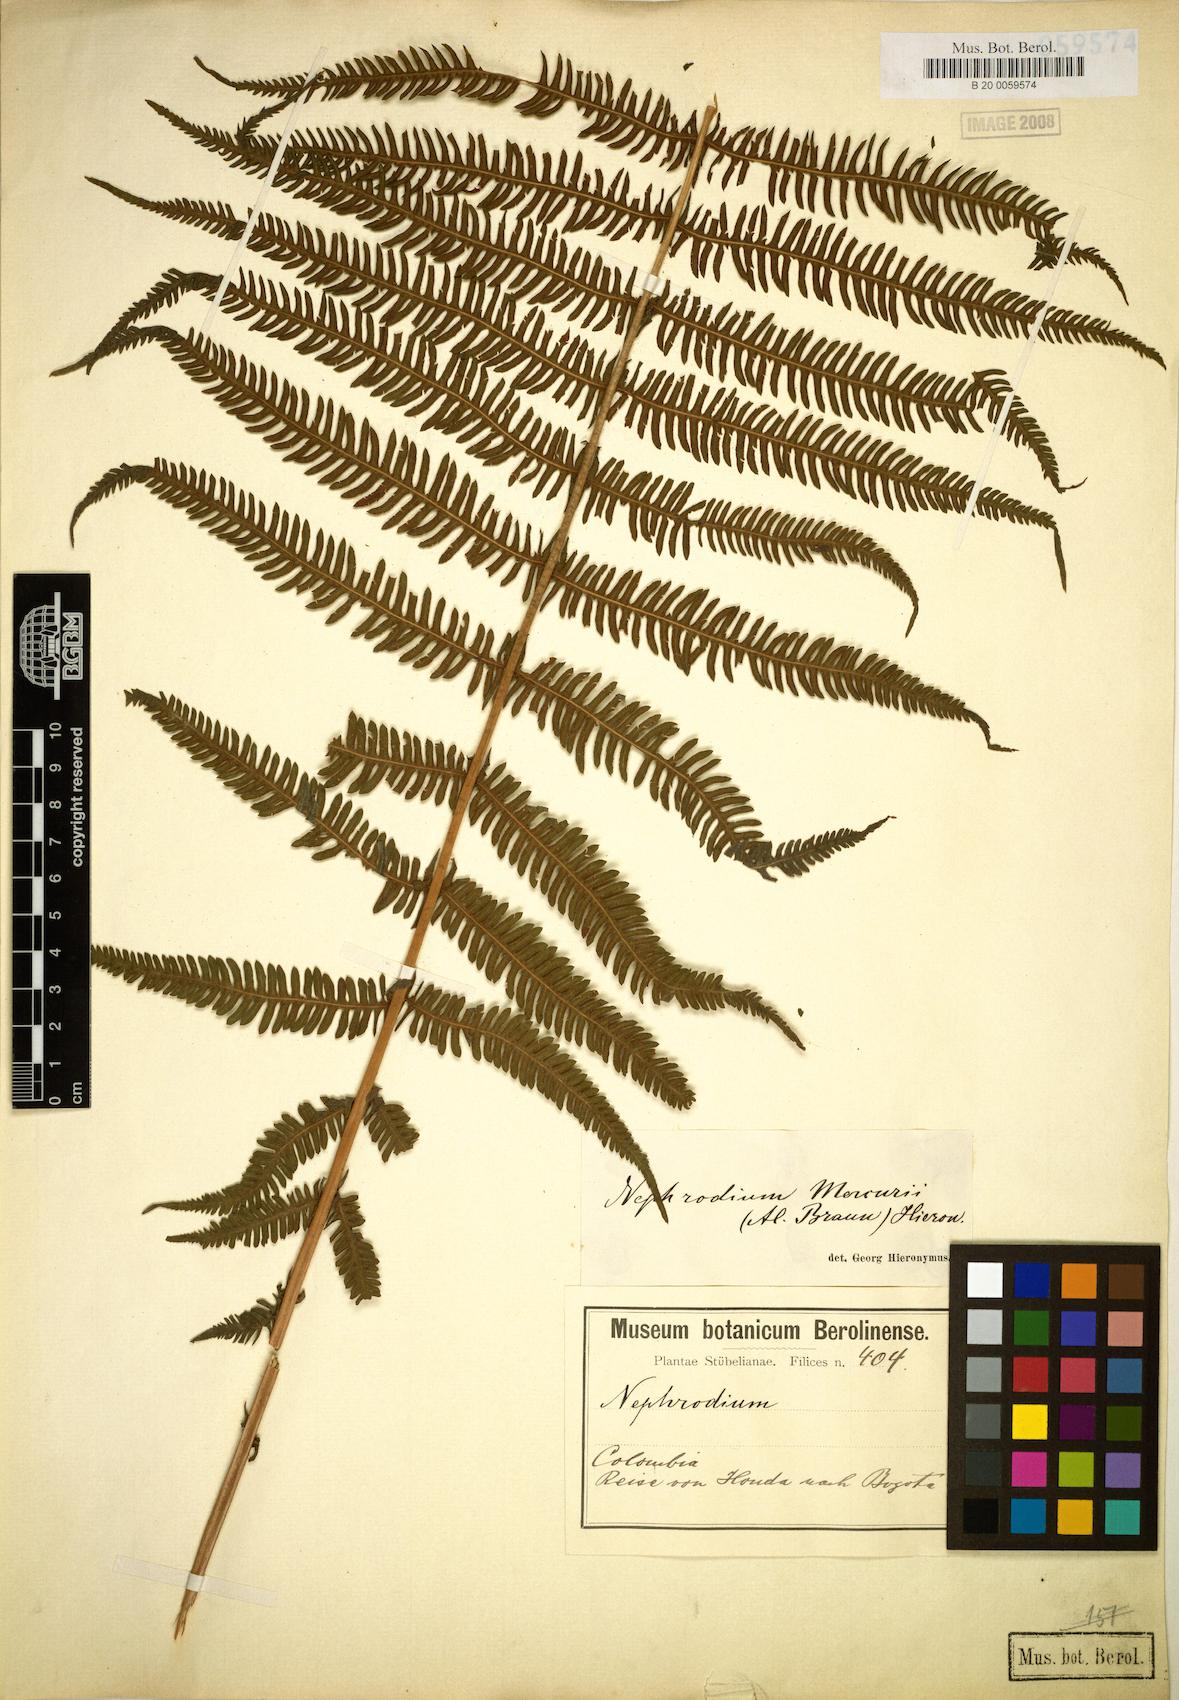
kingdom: Plantae
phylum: Tracheophyta
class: Polypodiopsida
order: Polypodiales
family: Thelypteridaceae
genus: Amauropelta
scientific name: Amauropelta balbisii
